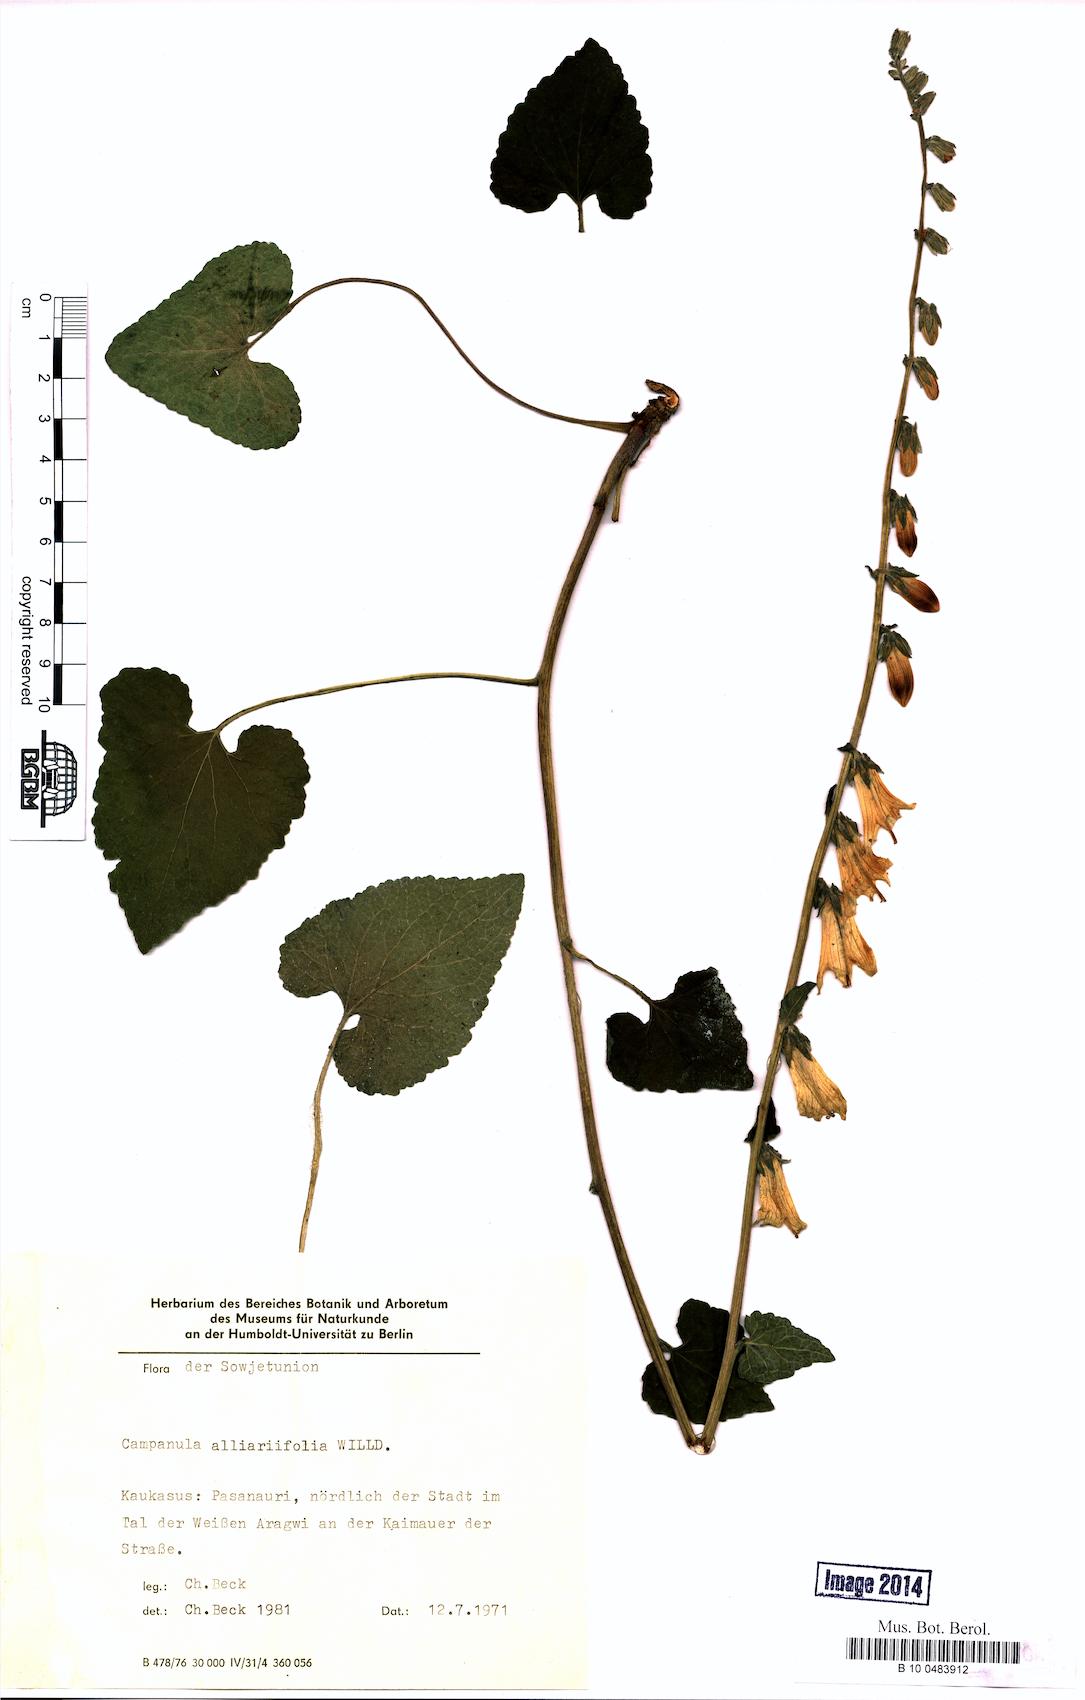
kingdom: Plantae
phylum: Tracheophyta
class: Magnoliopsida
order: Asterales
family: Campanulaceae
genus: Campanula
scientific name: Campanula alliariifolia
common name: Cornish bellflower
